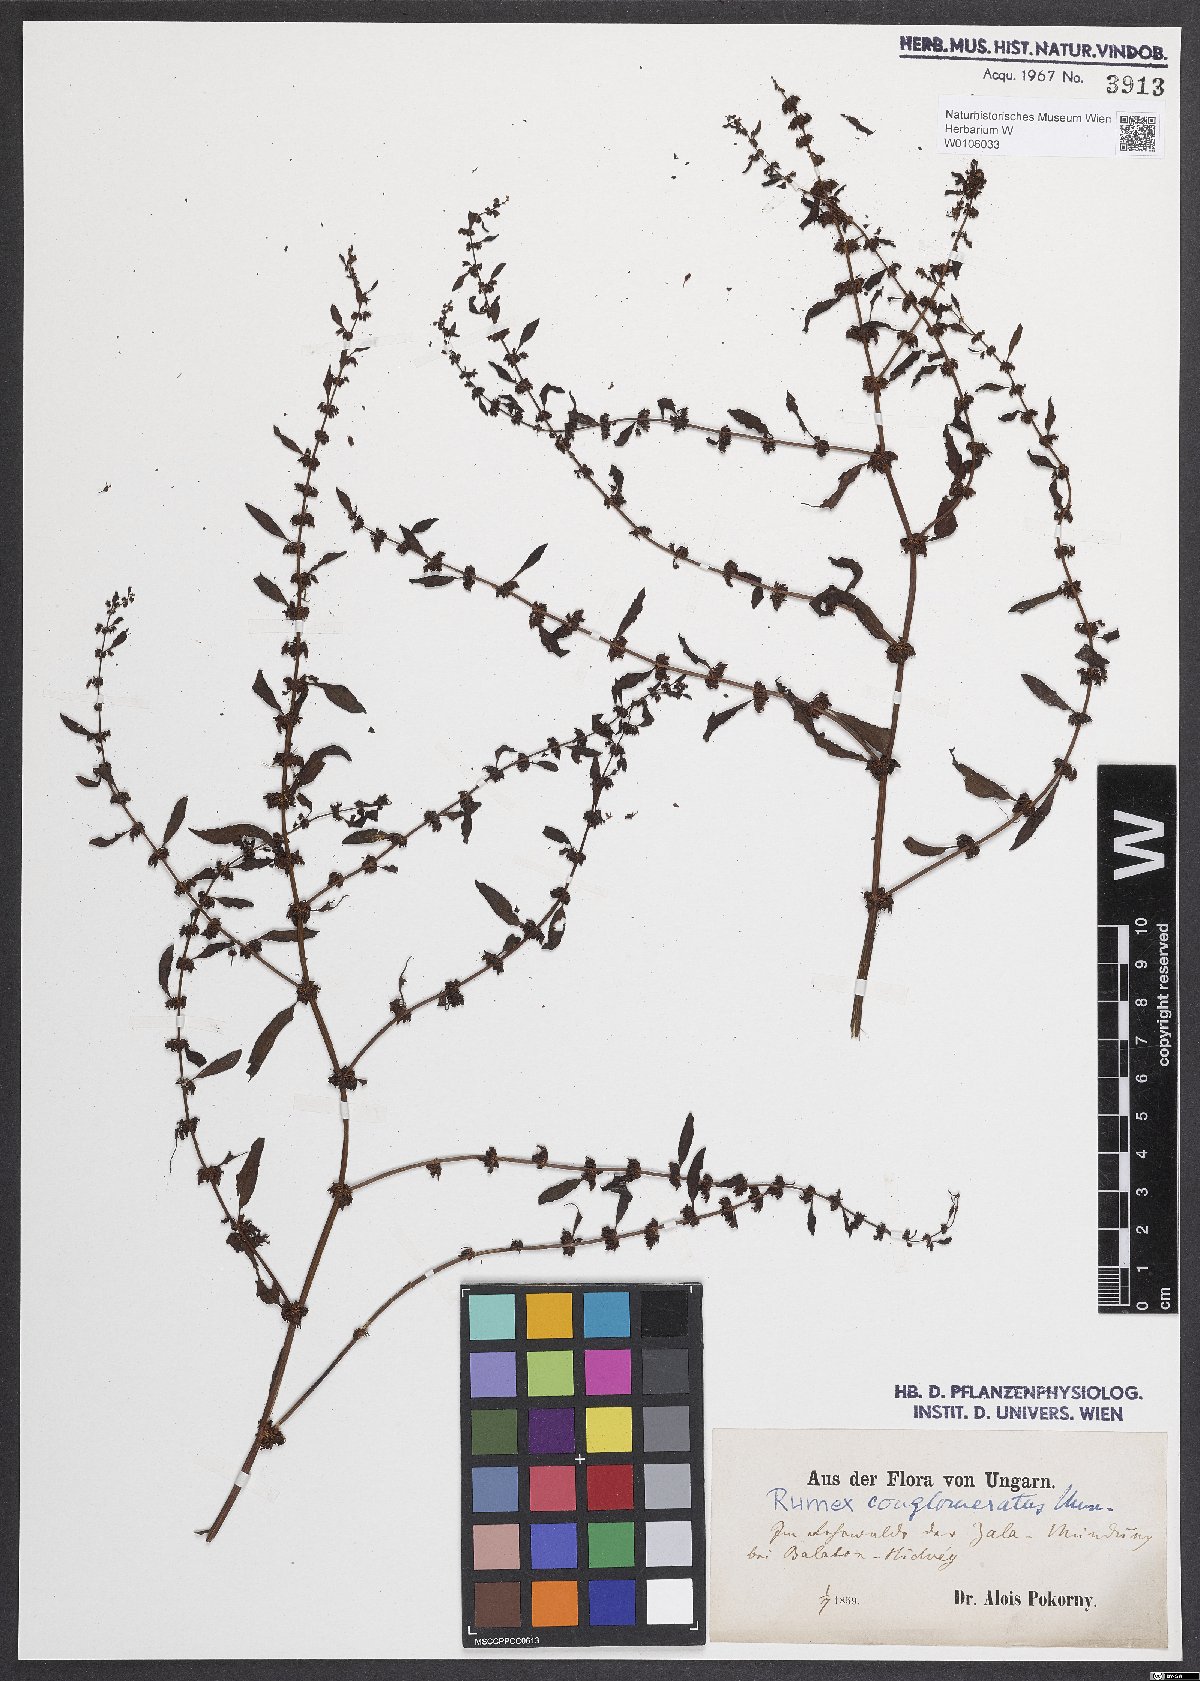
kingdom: Plantae
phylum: Tracheophyta
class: Magnoliopsida
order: Caryophyllales
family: Polygonaceae
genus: Rumex
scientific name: Rumex conglomeratus
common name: Clustered dock
